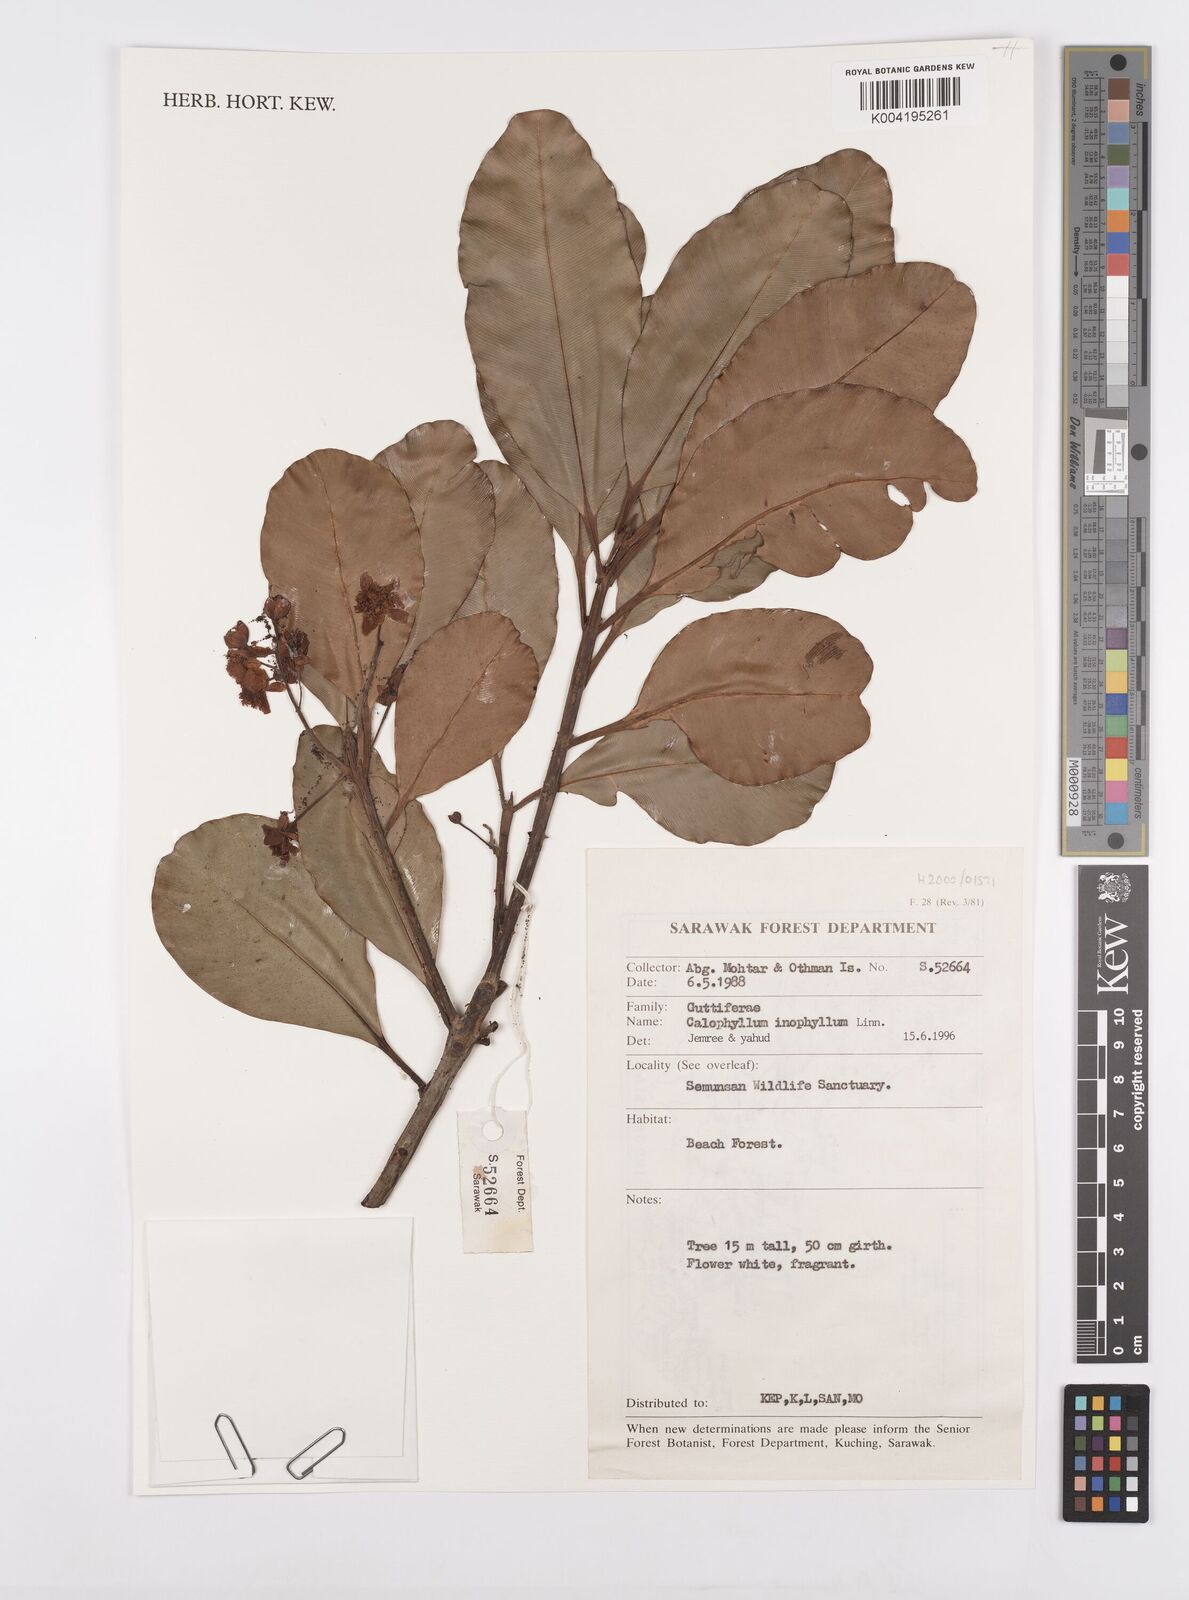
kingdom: Plantae
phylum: Tracheophyta
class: Magnoliopsida
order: Malpighiales
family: Calophyllaceae
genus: Calophyllum
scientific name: Calophyllum inophyllum
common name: Alexandrian laurel
